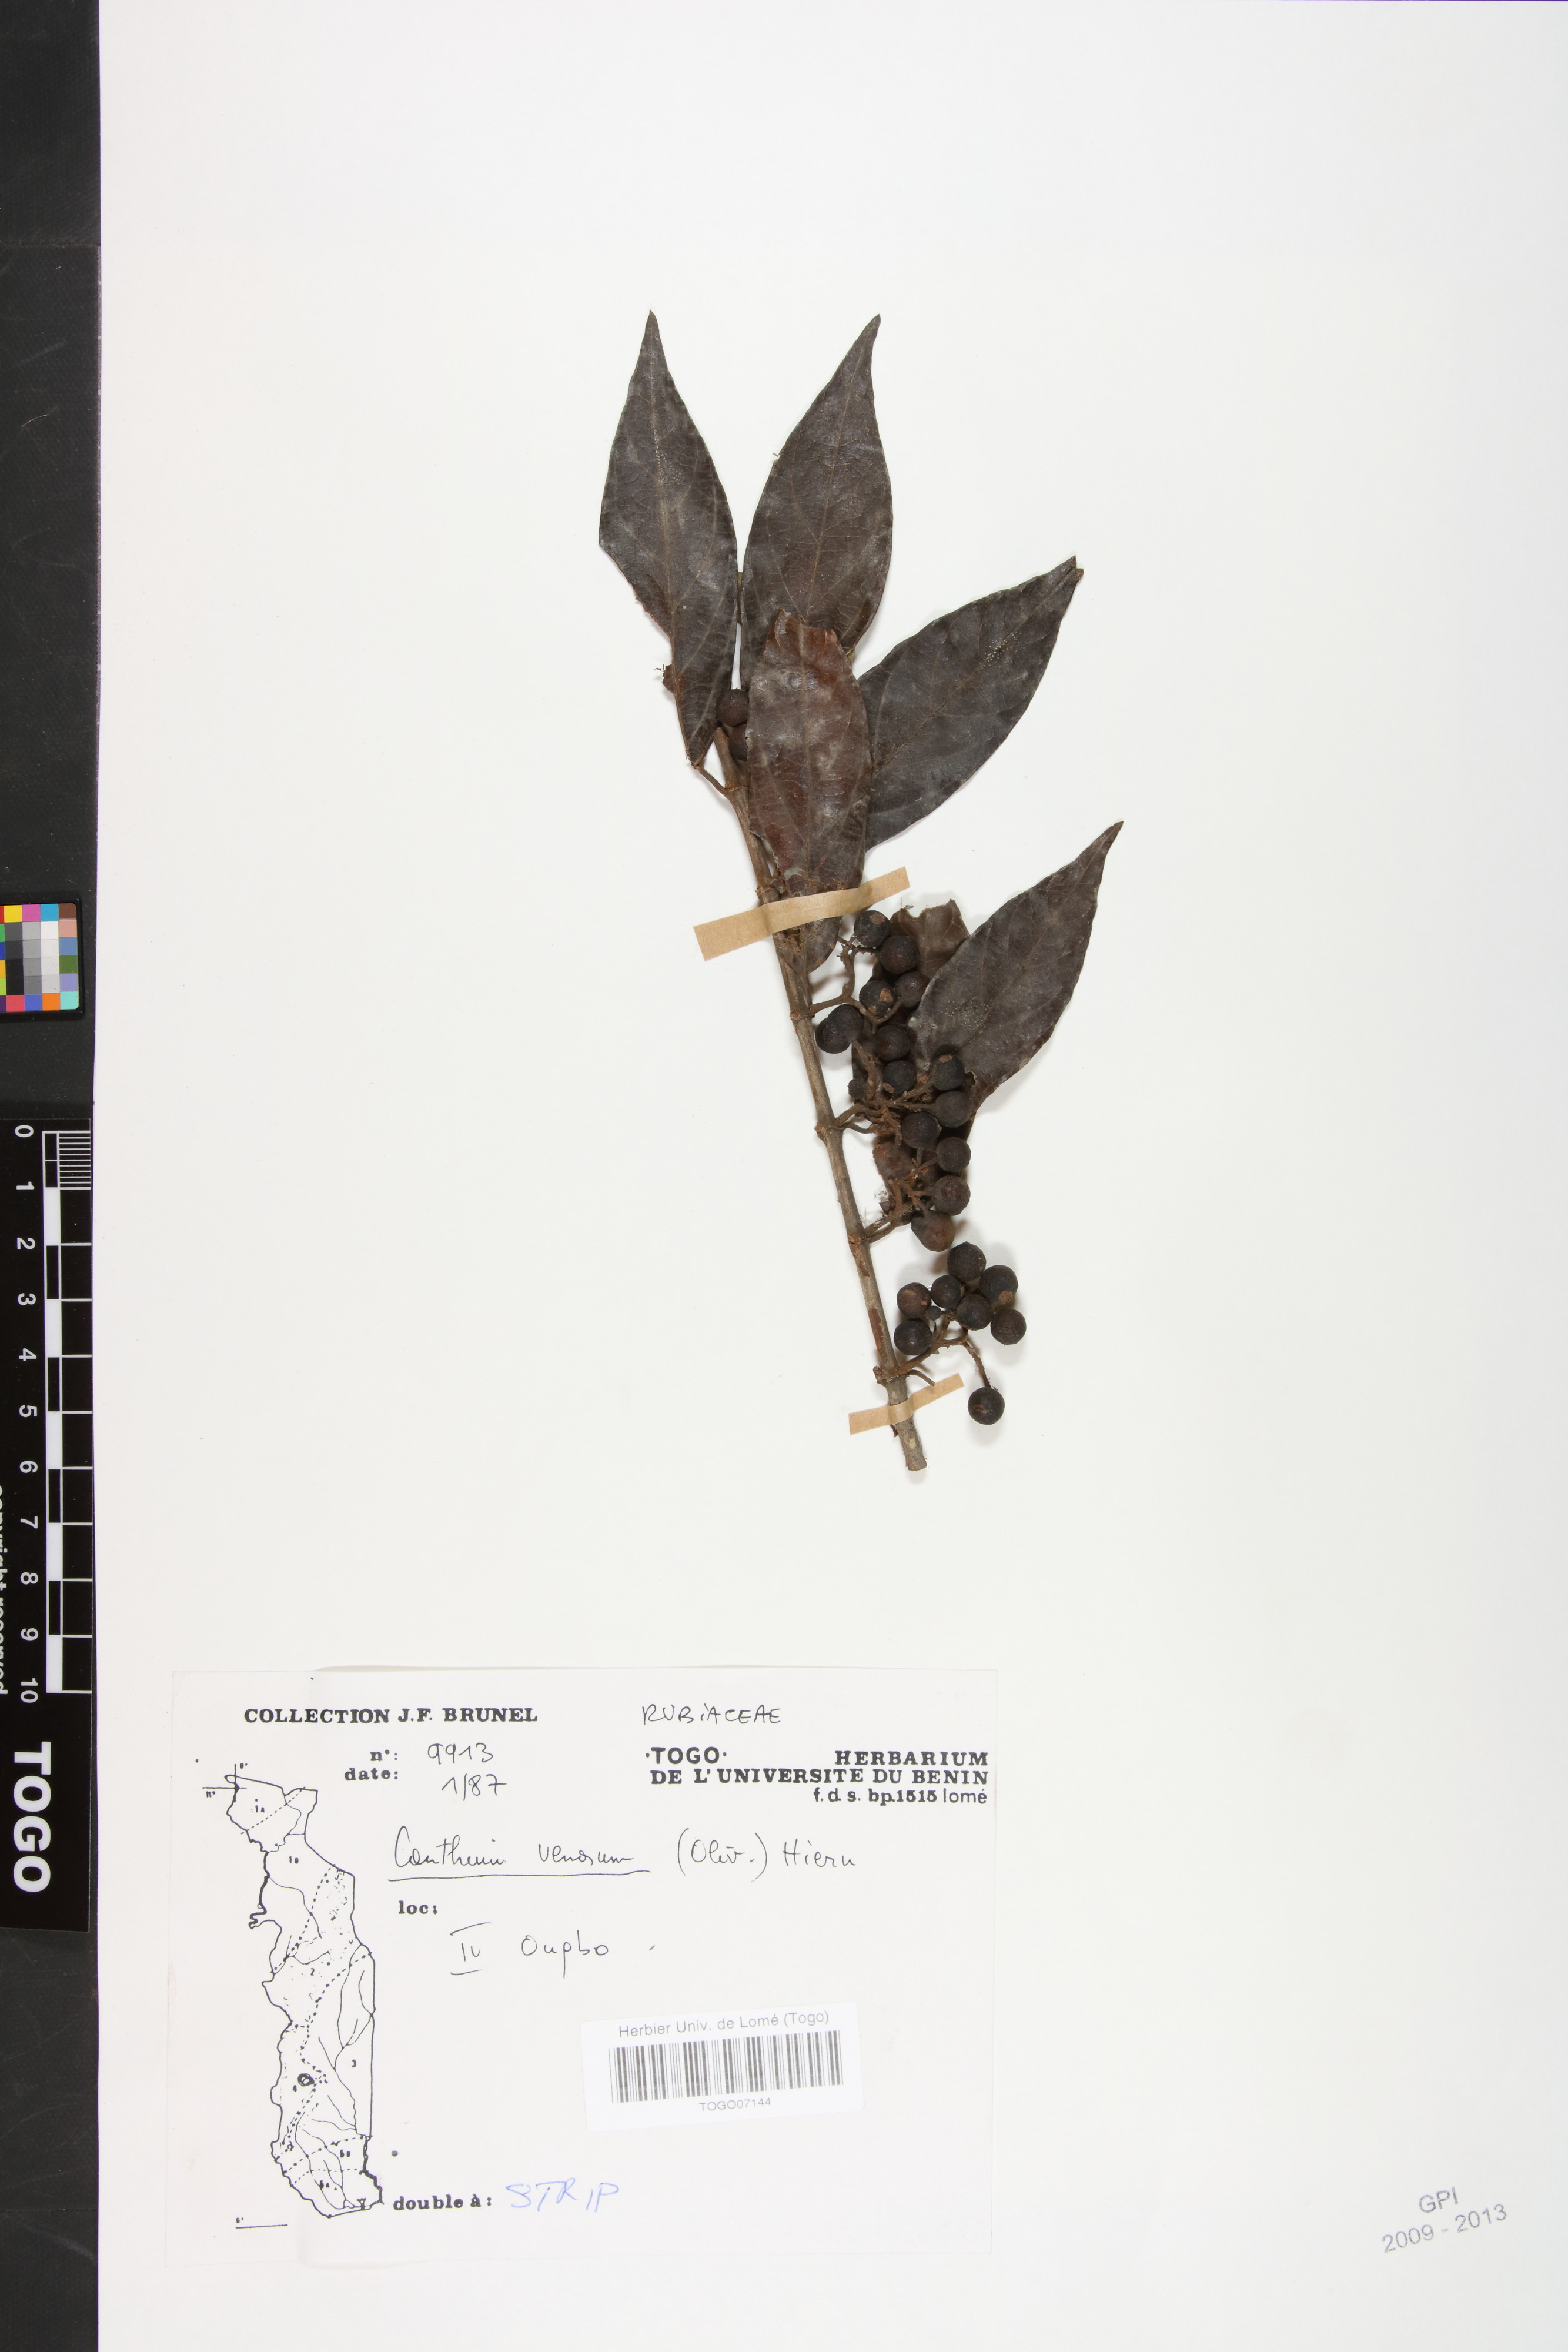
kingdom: Plantae
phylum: Tracheophyta
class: Magnoliopsida
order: Gentianales
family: Rubiaceae
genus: Keetia
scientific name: Keetia venosa
